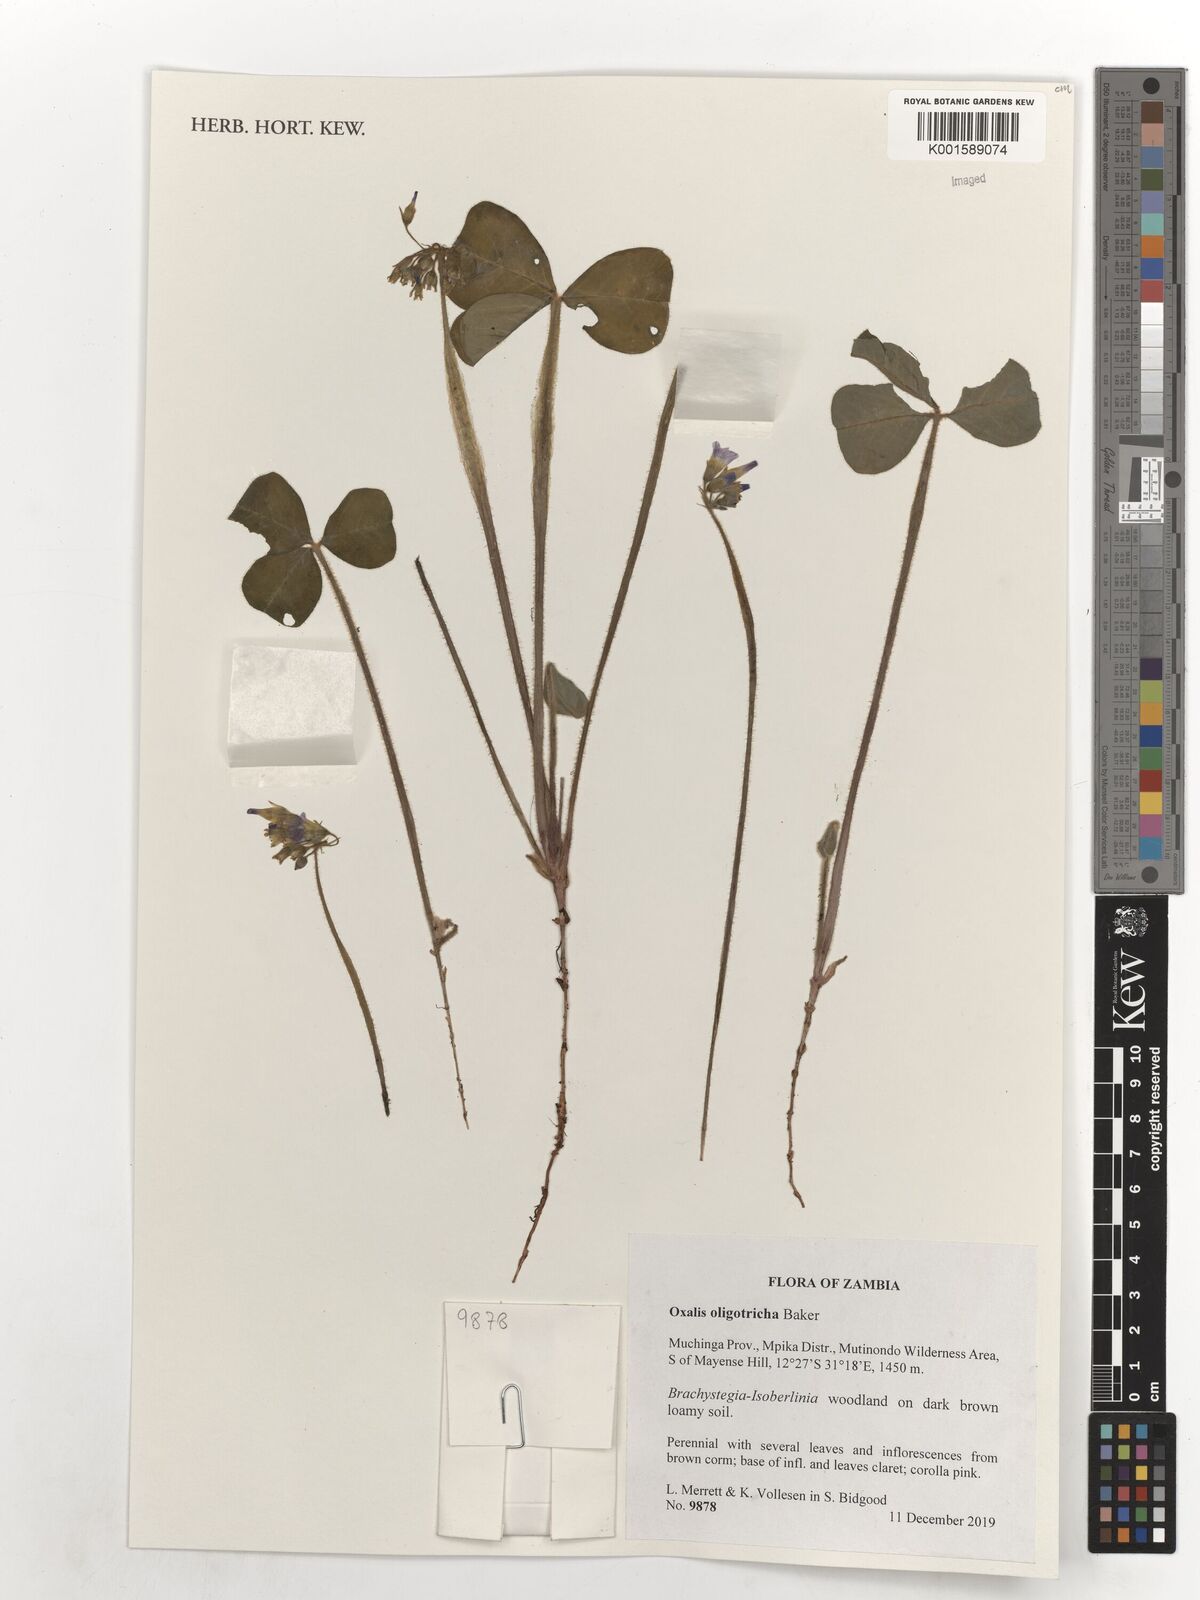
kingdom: Plantae
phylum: Tracheophyta
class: Magnoliopsida
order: Oxalidales
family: Oxalidaceae
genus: Oxalis
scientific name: Oxalis oligotricha
